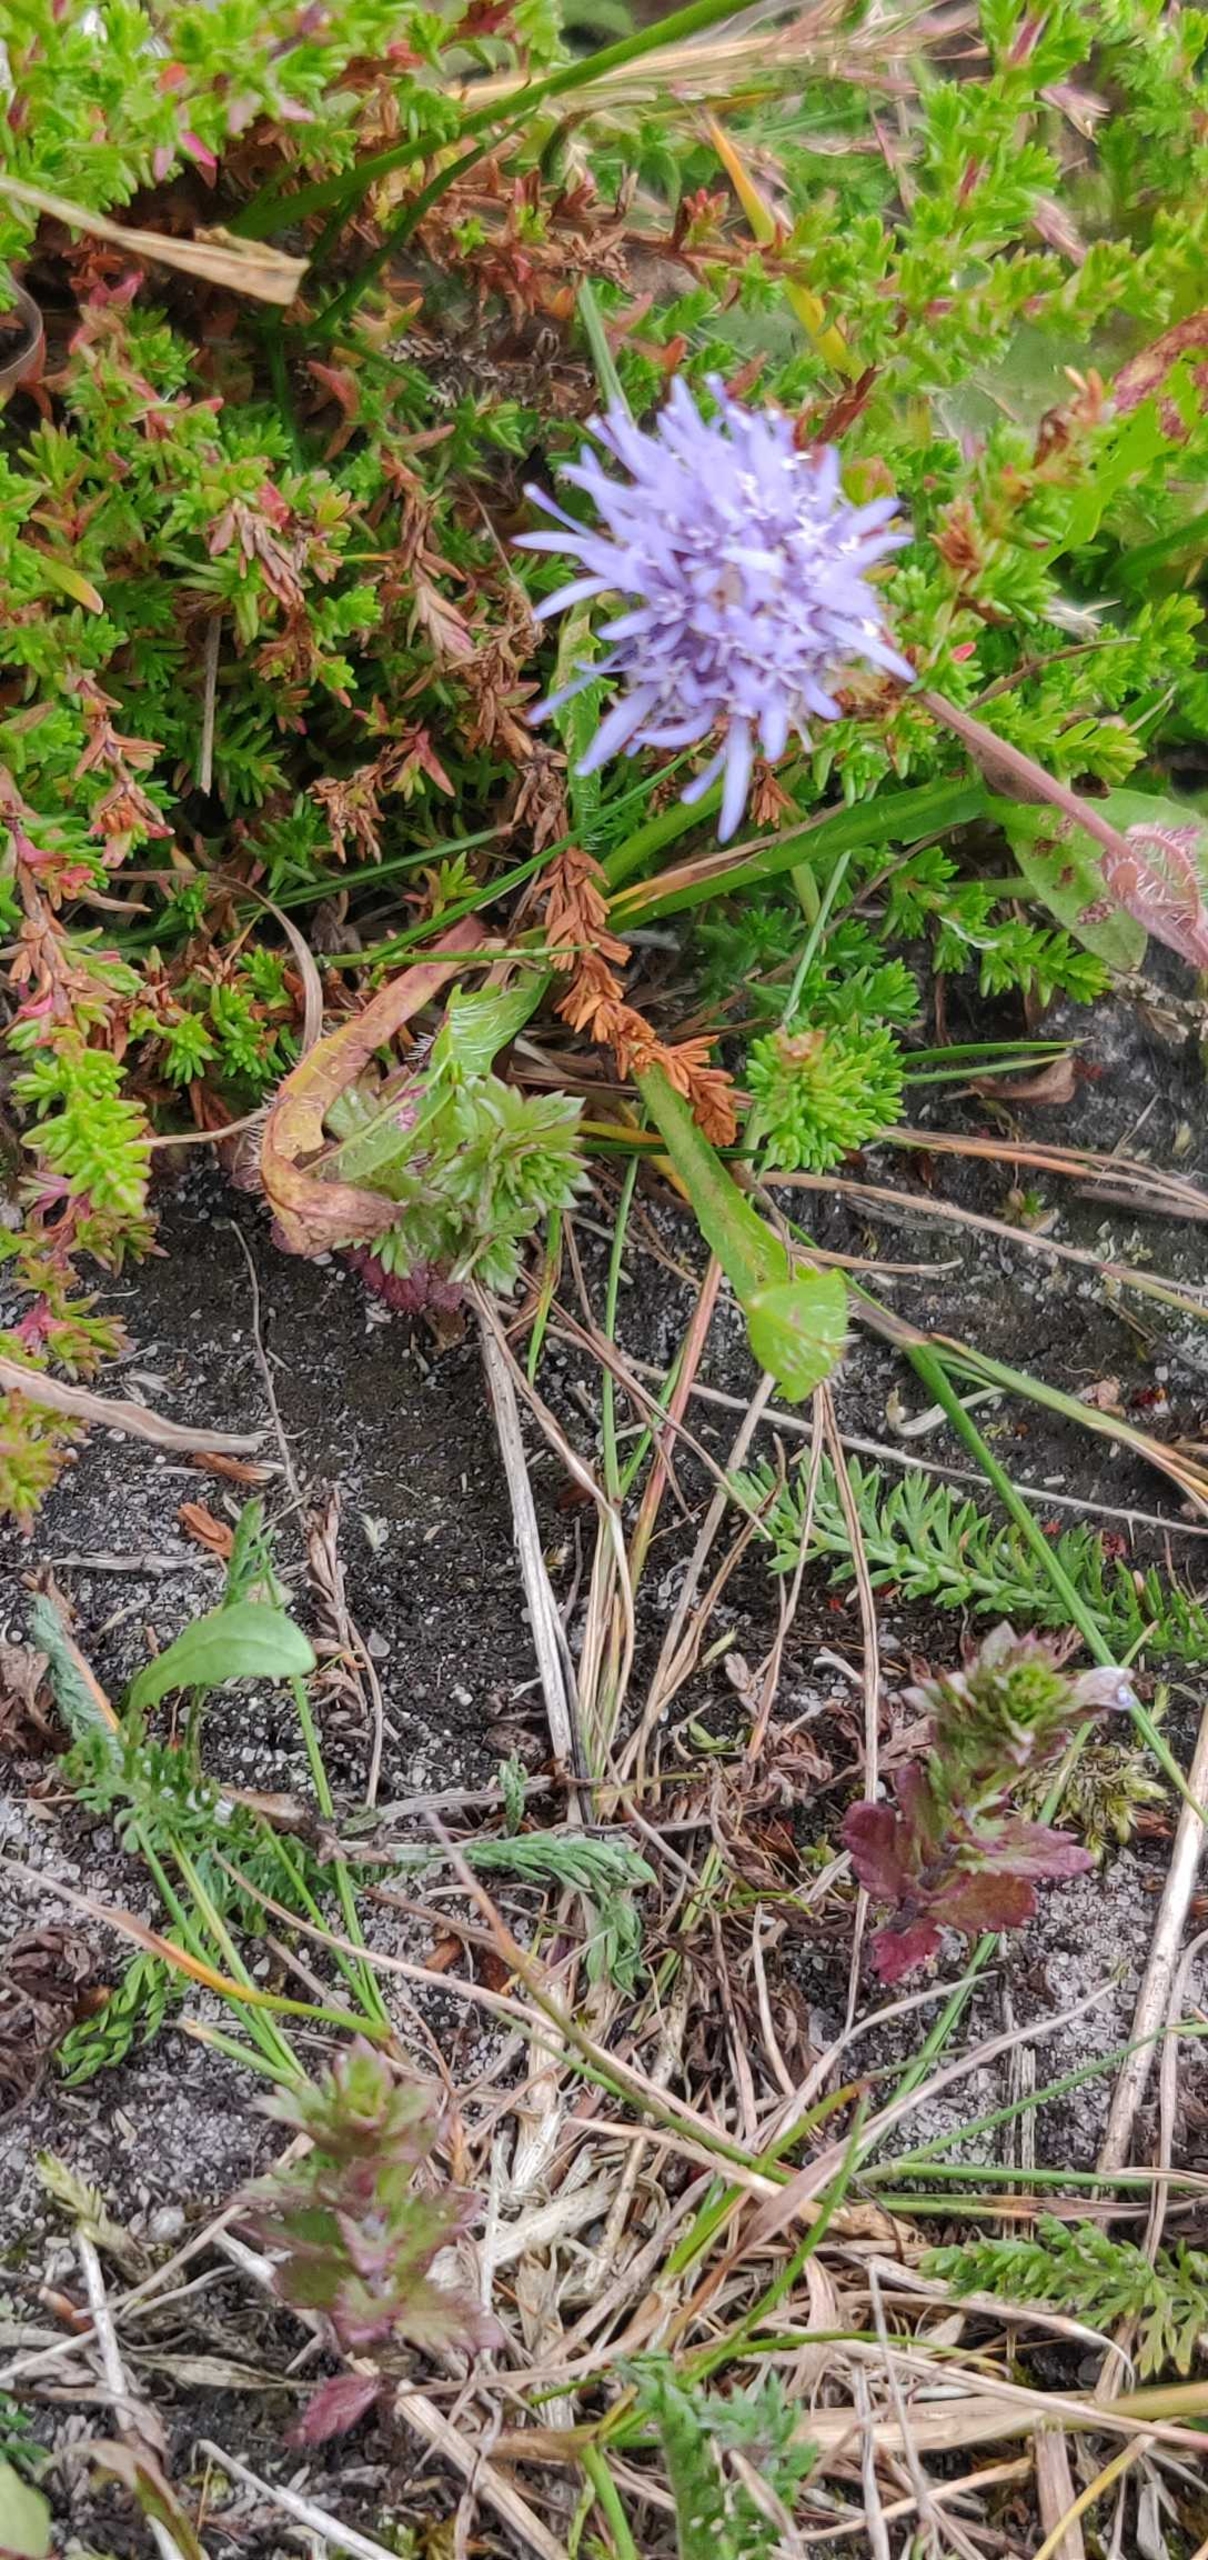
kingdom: Plantae
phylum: Tracheophyta
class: Magnoliopsida
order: Asterales
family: Campanulaceae
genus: Jasione
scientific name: Jasione montana
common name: Blåmunke
